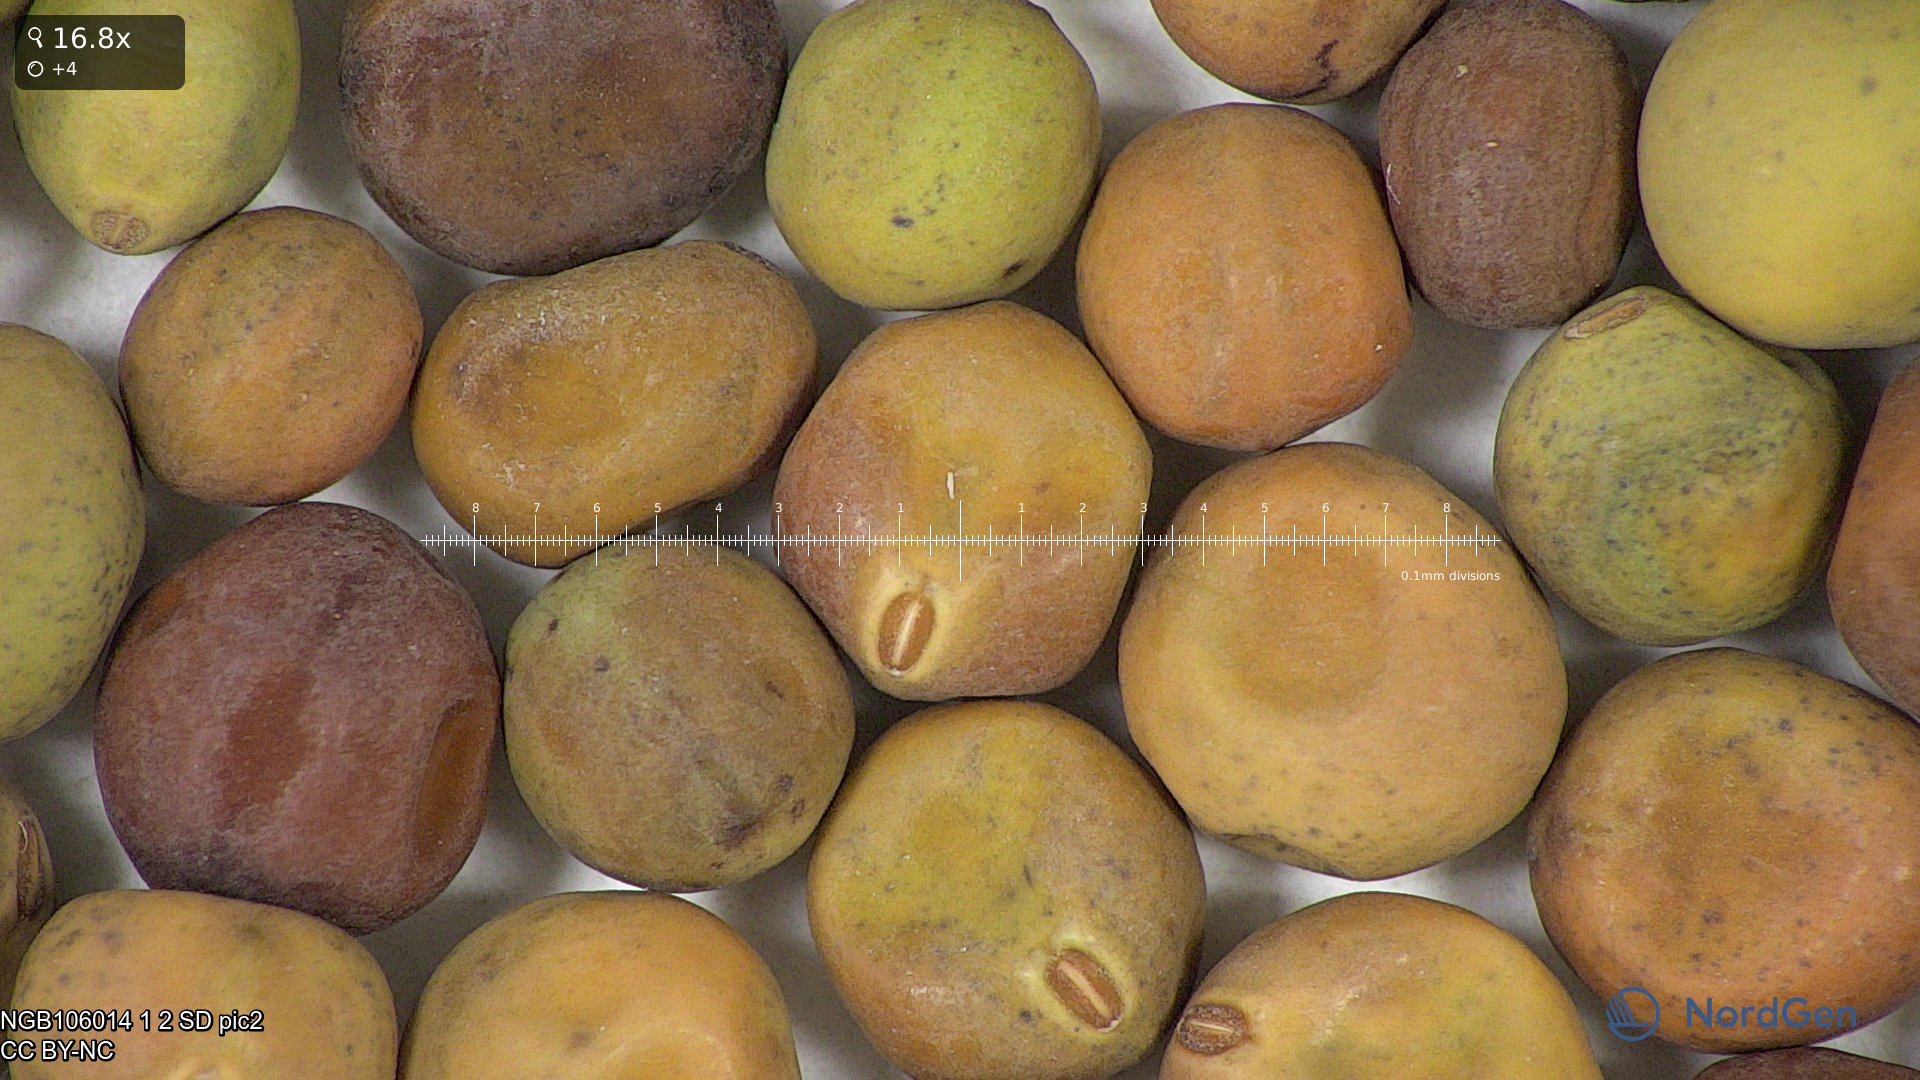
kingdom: Plantae
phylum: Tracheophyta
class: Magnoliopsida
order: Fabales
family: Fabaceae
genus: Lathyrus
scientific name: Lathyrus oleraceus
